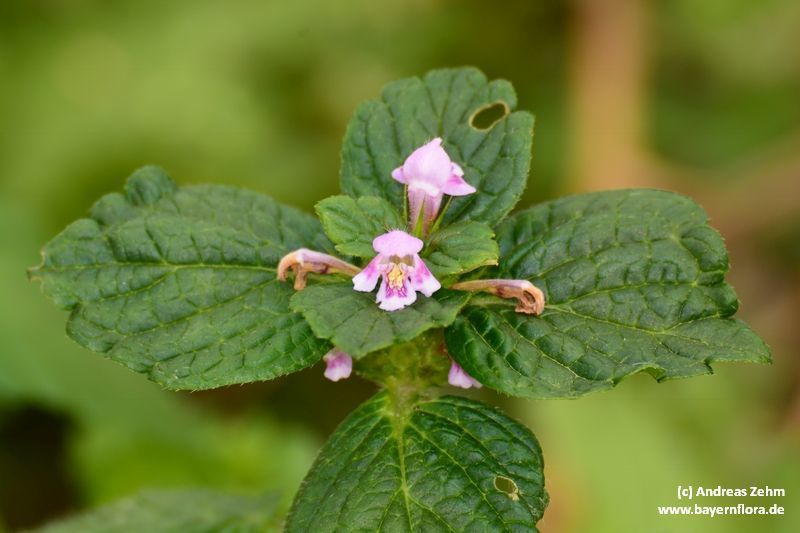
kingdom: Plantae
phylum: Tracheophyta
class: Magnoliopsida
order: Lamiales
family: Lamiaceae
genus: Galeopsis
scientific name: Galeopsis tetrahit
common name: Common hemp-nettle
